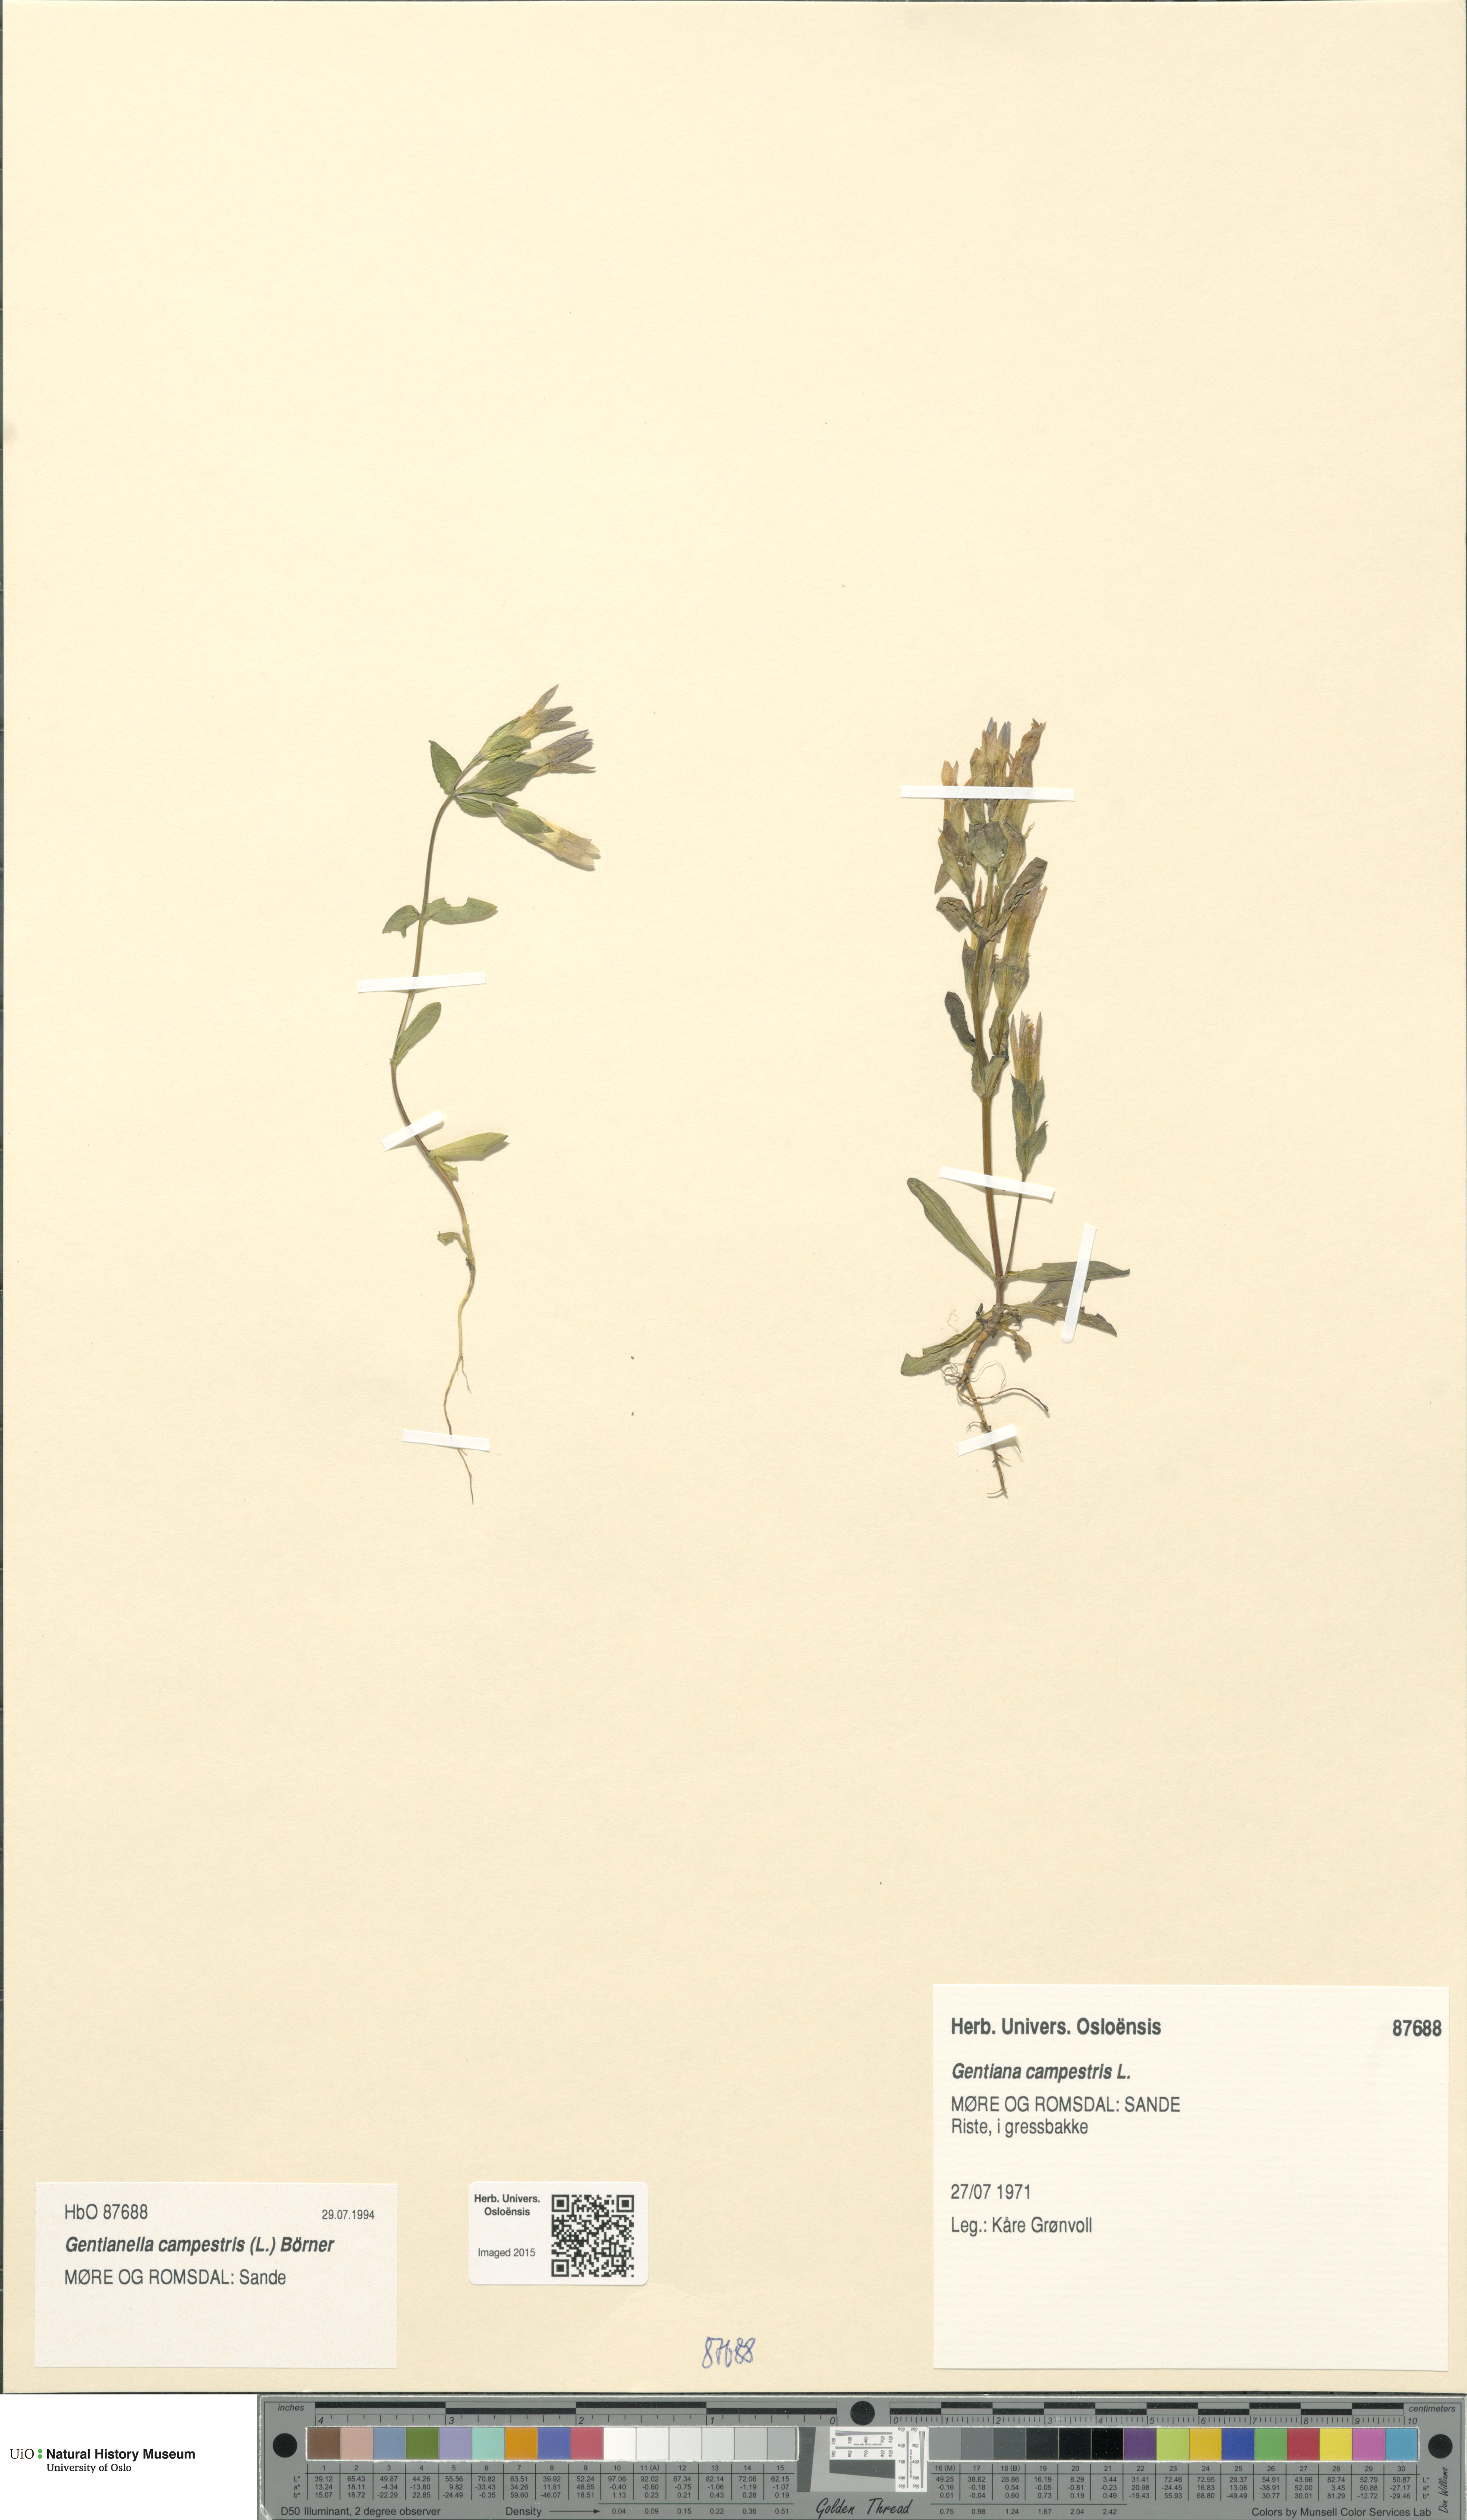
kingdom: Plantae
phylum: Tracheophyta
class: Magnoliopsida
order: Gentianales
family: Gentianaceae
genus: Gentianella
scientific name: Gentianella campestris
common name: Field gentian
